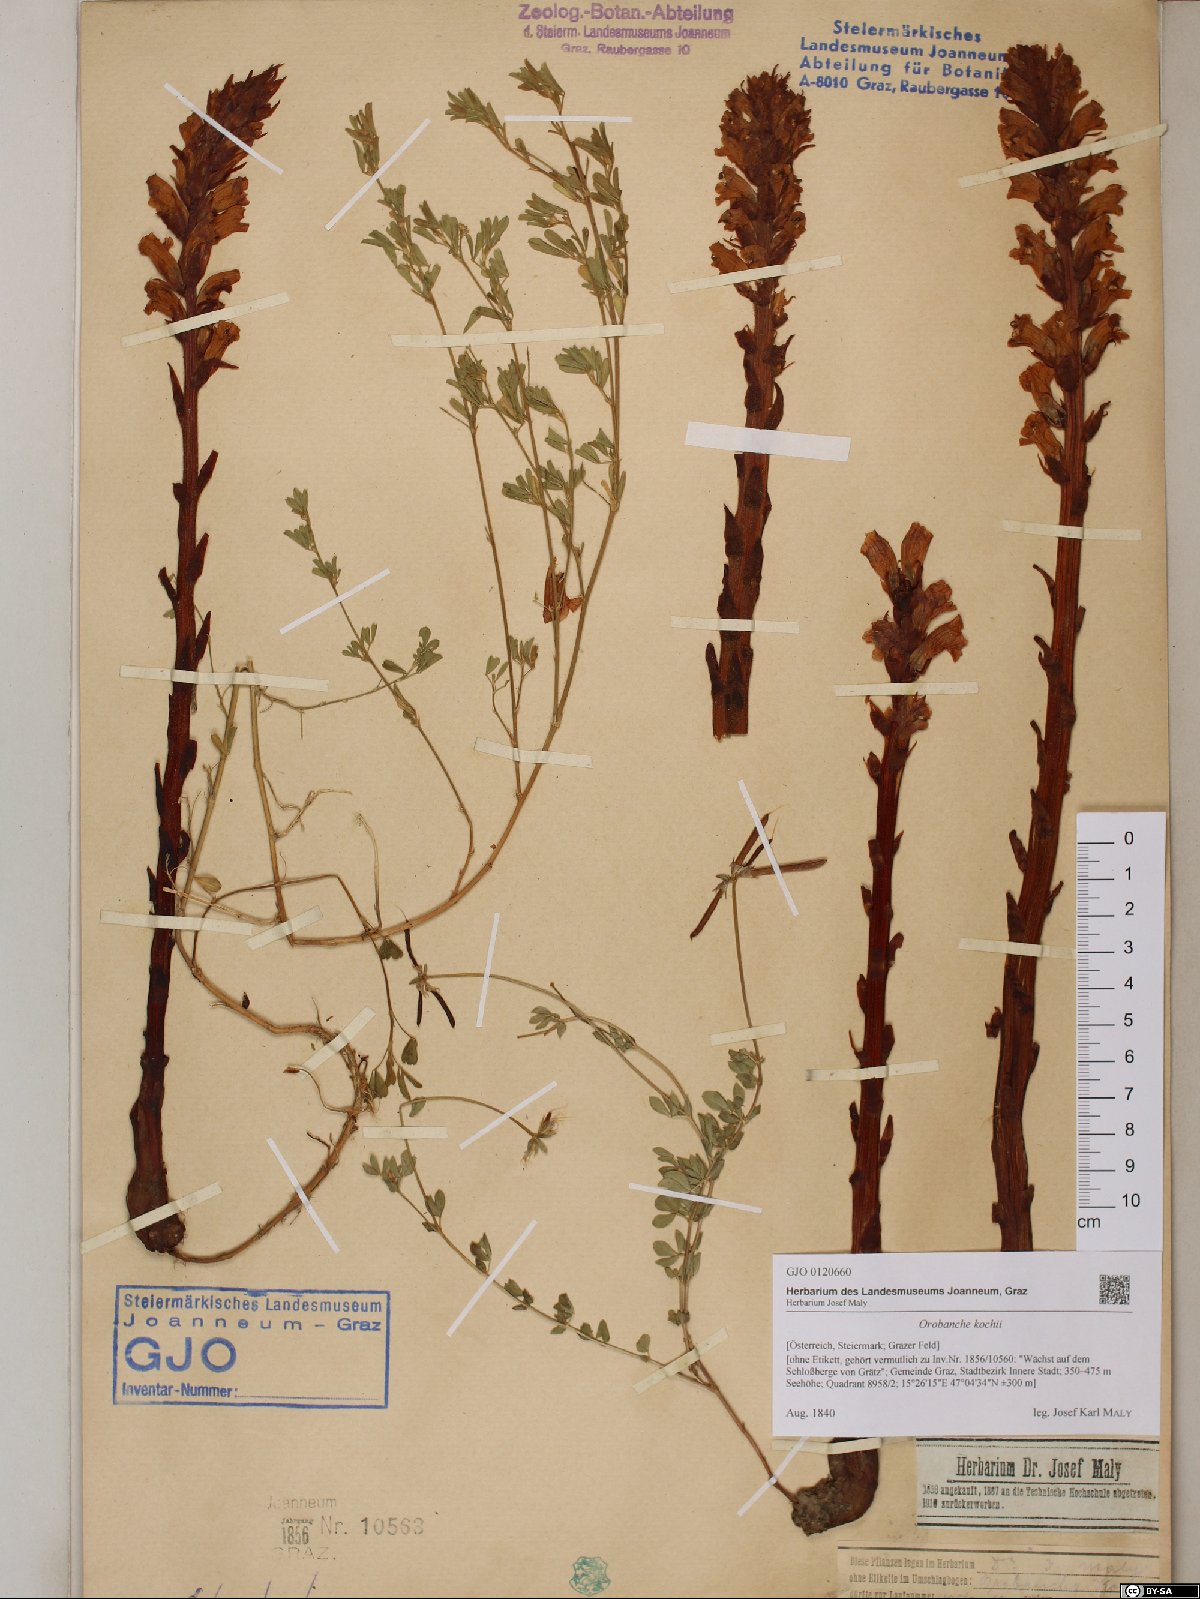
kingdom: Plantae
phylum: Tracheophyta
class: Magnoliopsida
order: Lamiales
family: Orobanchaceae
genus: Orobanche
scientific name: Orobanche centaurina
